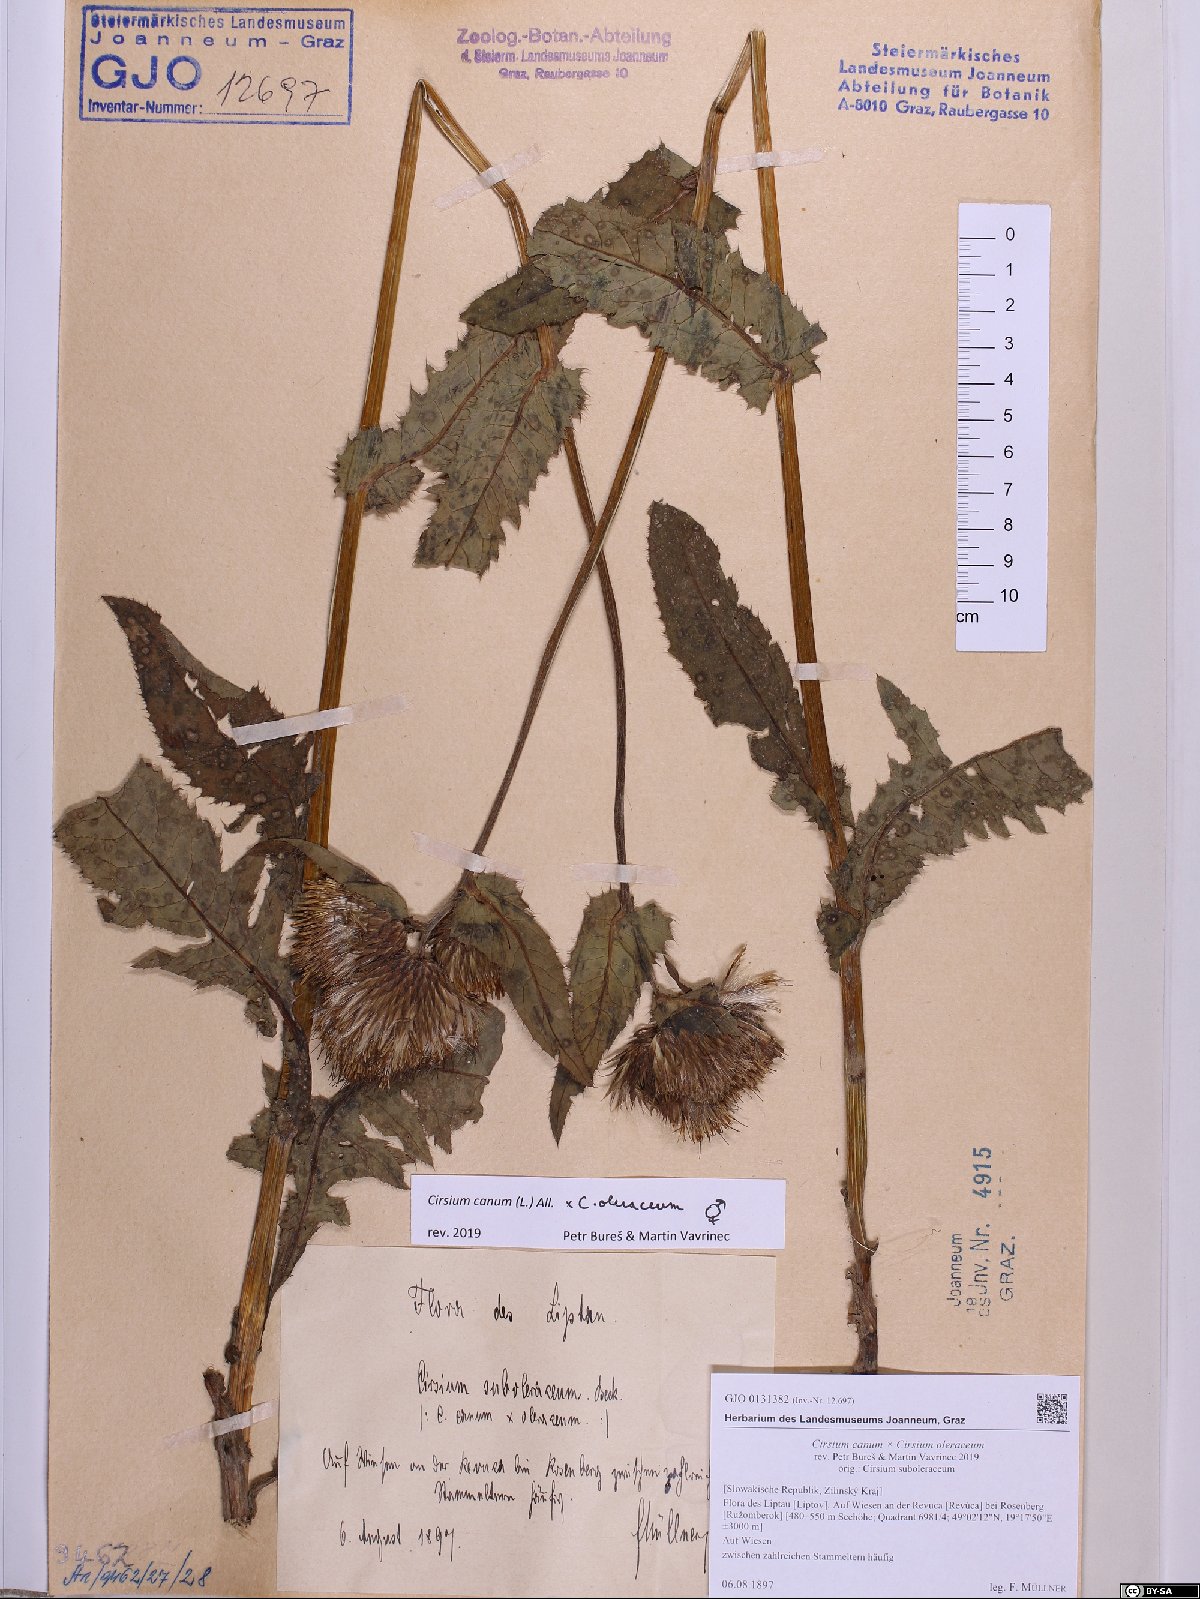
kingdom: Plantae
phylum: Tracheophyta
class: Magnoliopsida
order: Asterales
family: Asteraceae
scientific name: Asteraceae
